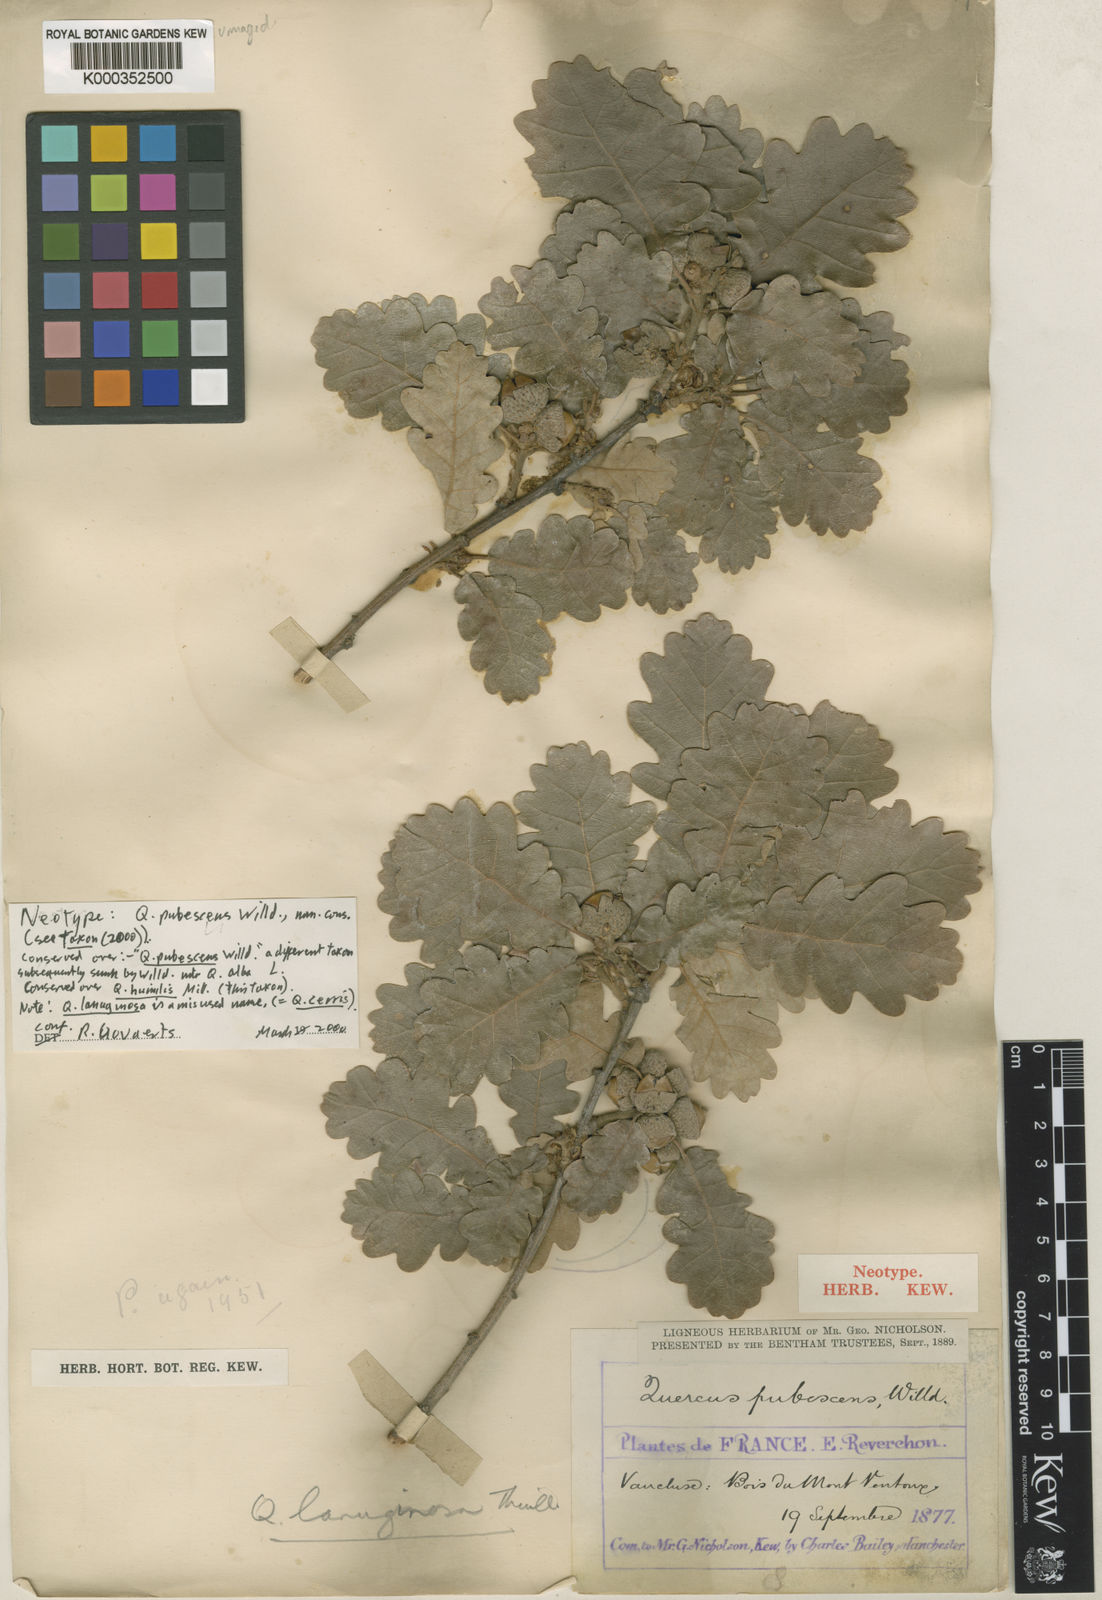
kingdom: Plantae
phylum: Tracheophyta
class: Magnoliopsida
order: Fagales
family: Fagaceae
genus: Quercus
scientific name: Quercus pubescens
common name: Downy oak
